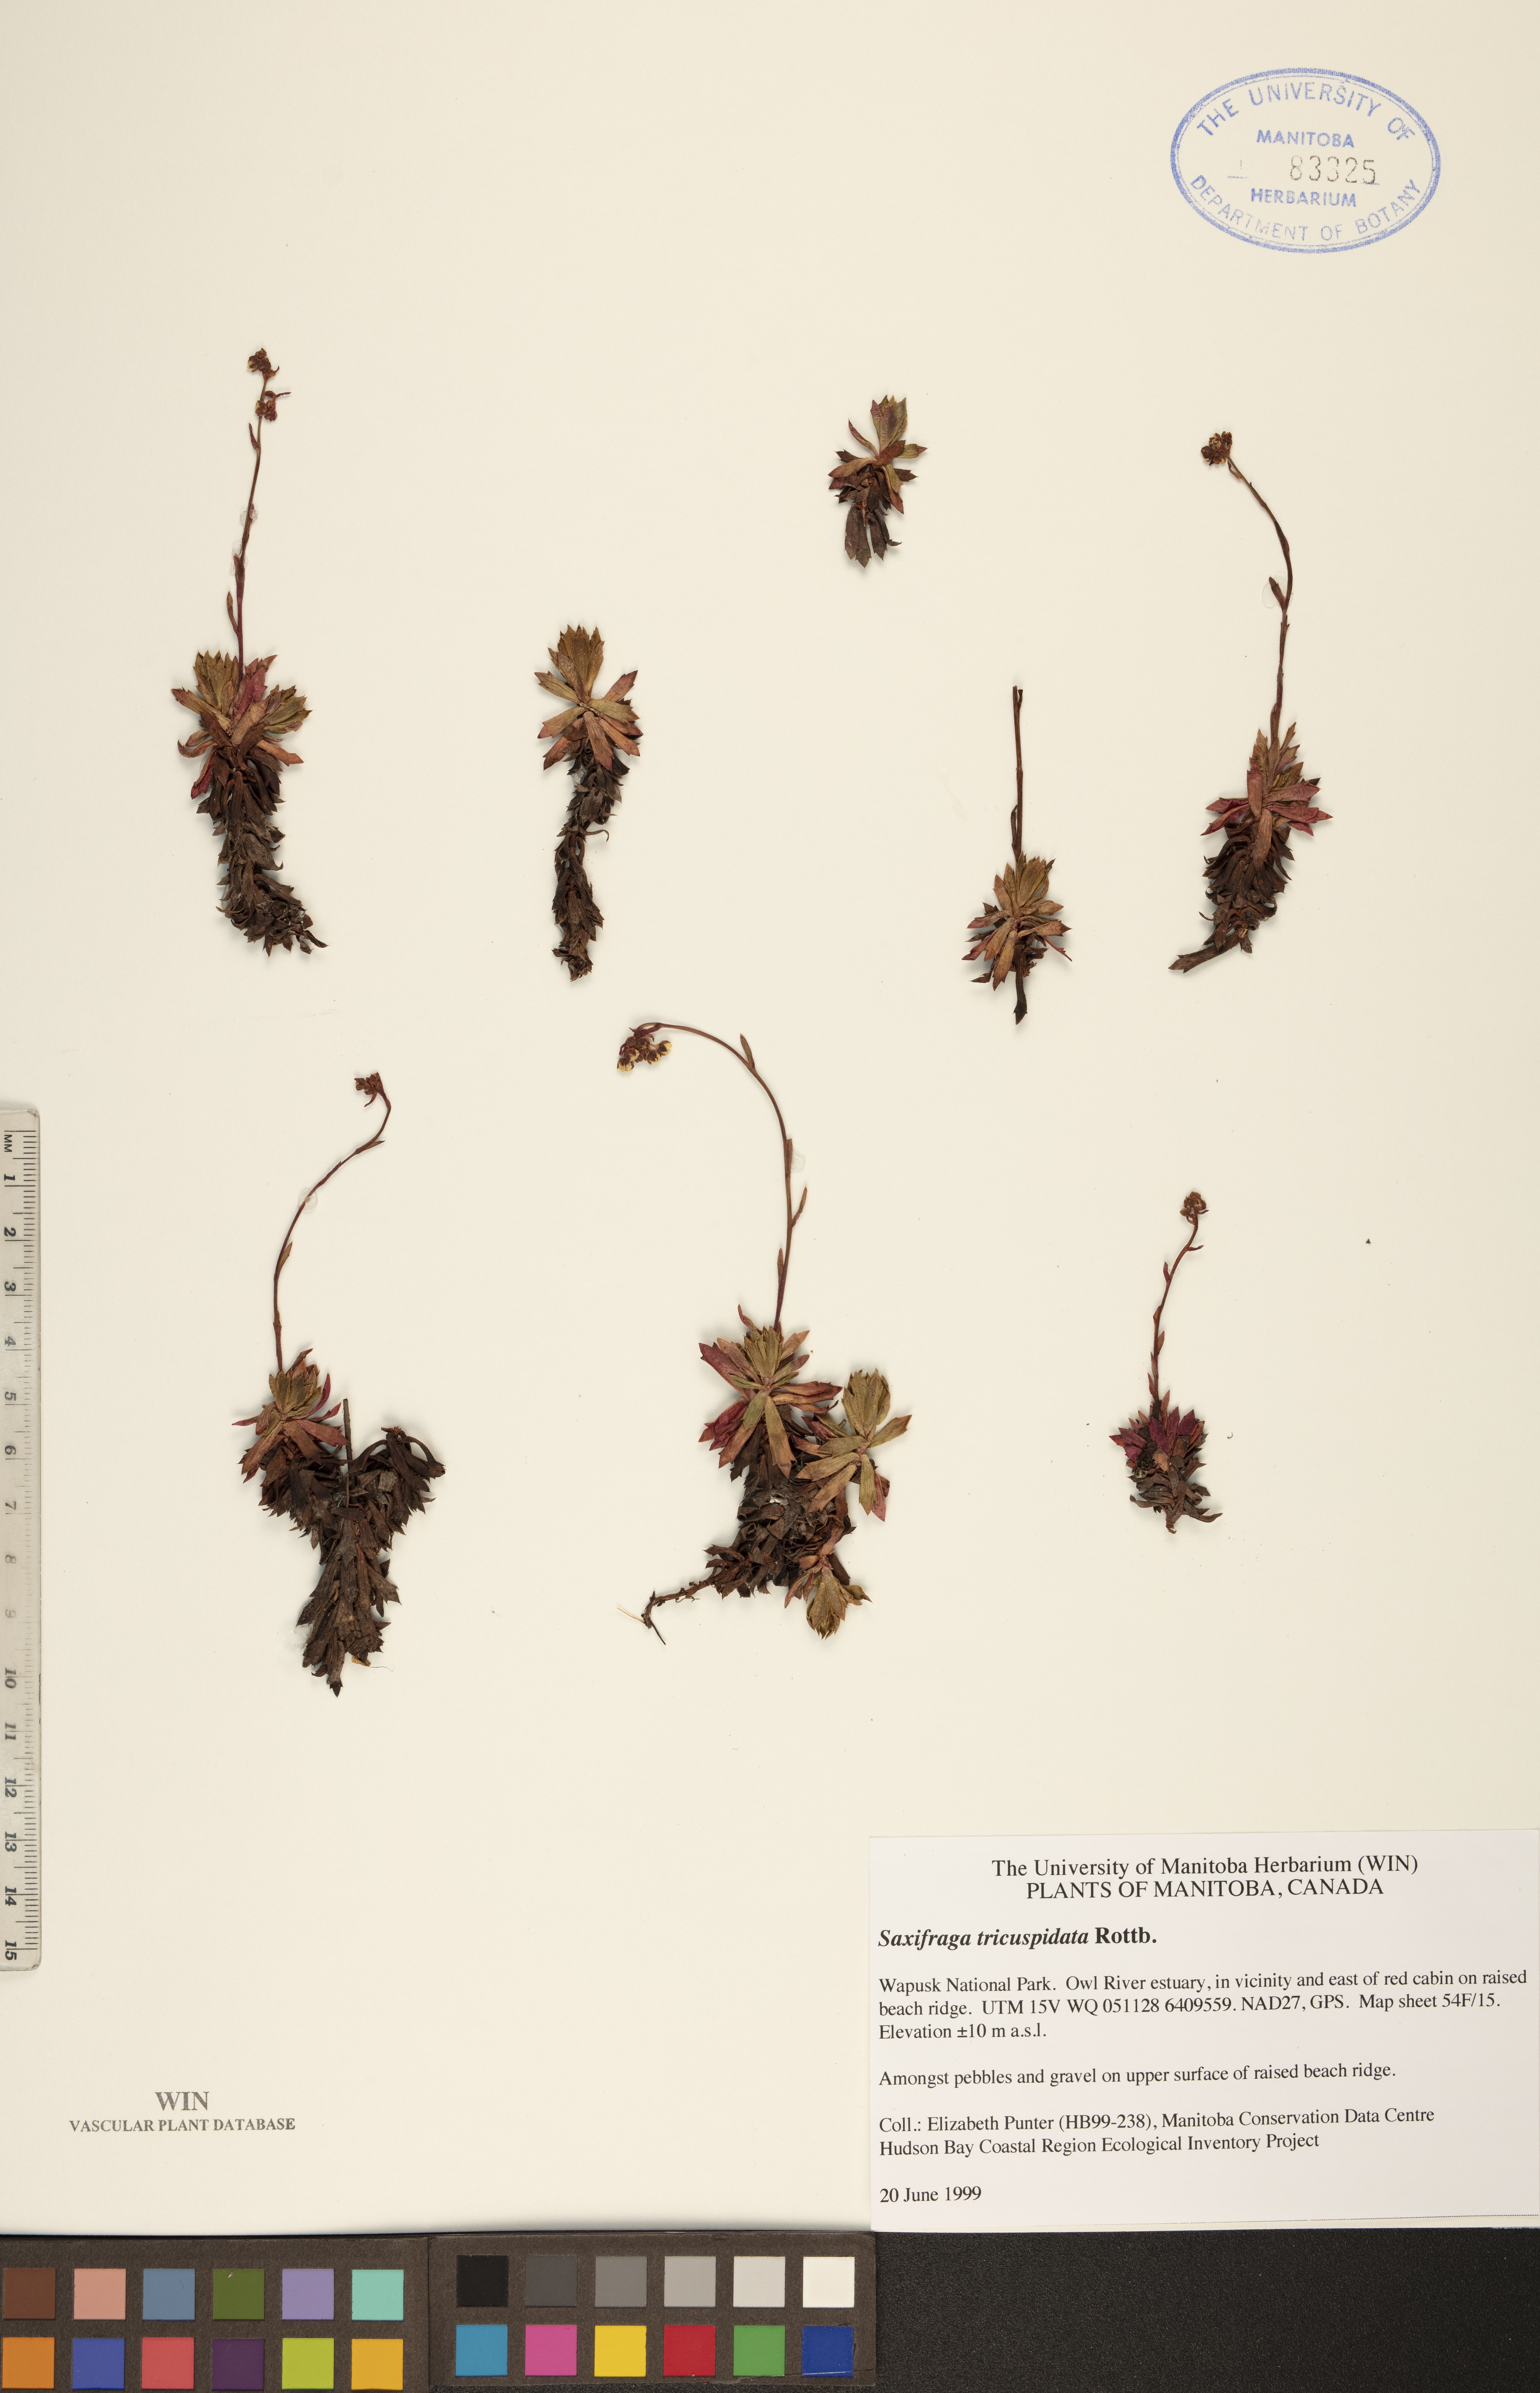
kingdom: Plantae
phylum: Tracheophyta
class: Magnoliopsida
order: Saxifragales
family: Saxifragaceae
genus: Saxifraga
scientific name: Saxifraga tricuspidata
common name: Prickly saxifrage
